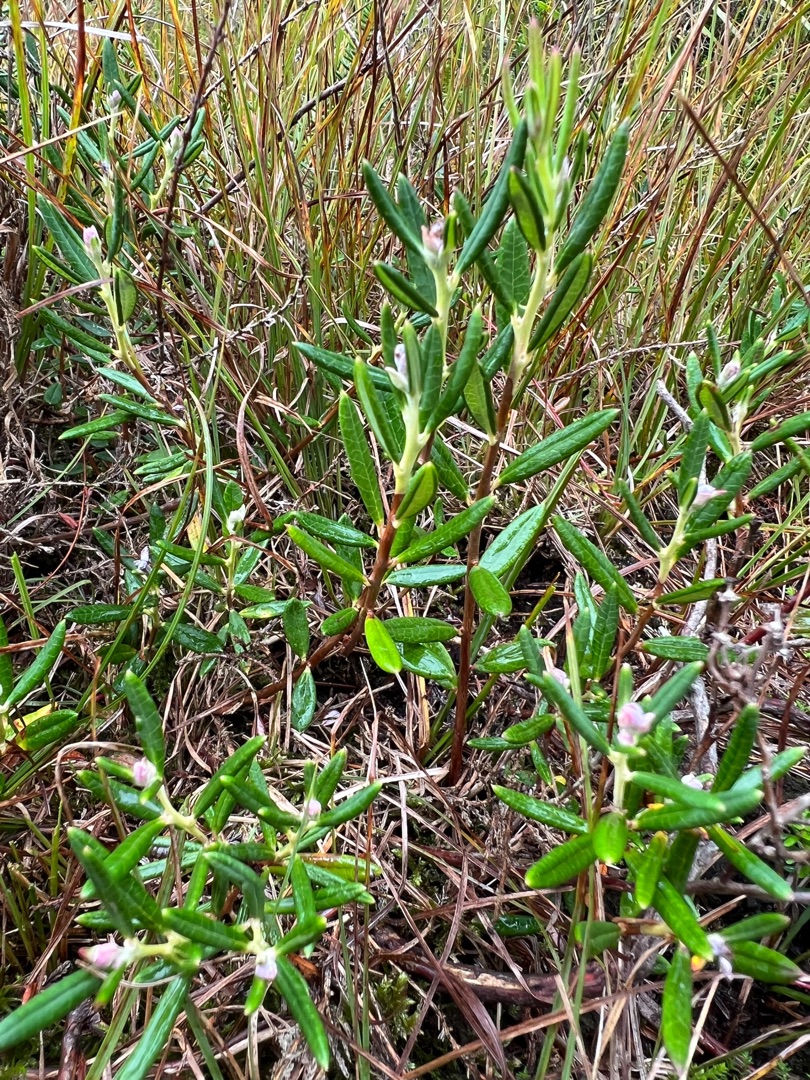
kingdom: Plantae
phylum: Tracheophyta
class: Magnoliopsida
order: Ericales
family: Ericaceae
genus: Andromeda
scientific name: Andromeda polifolia
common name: Rosmarinlyng
